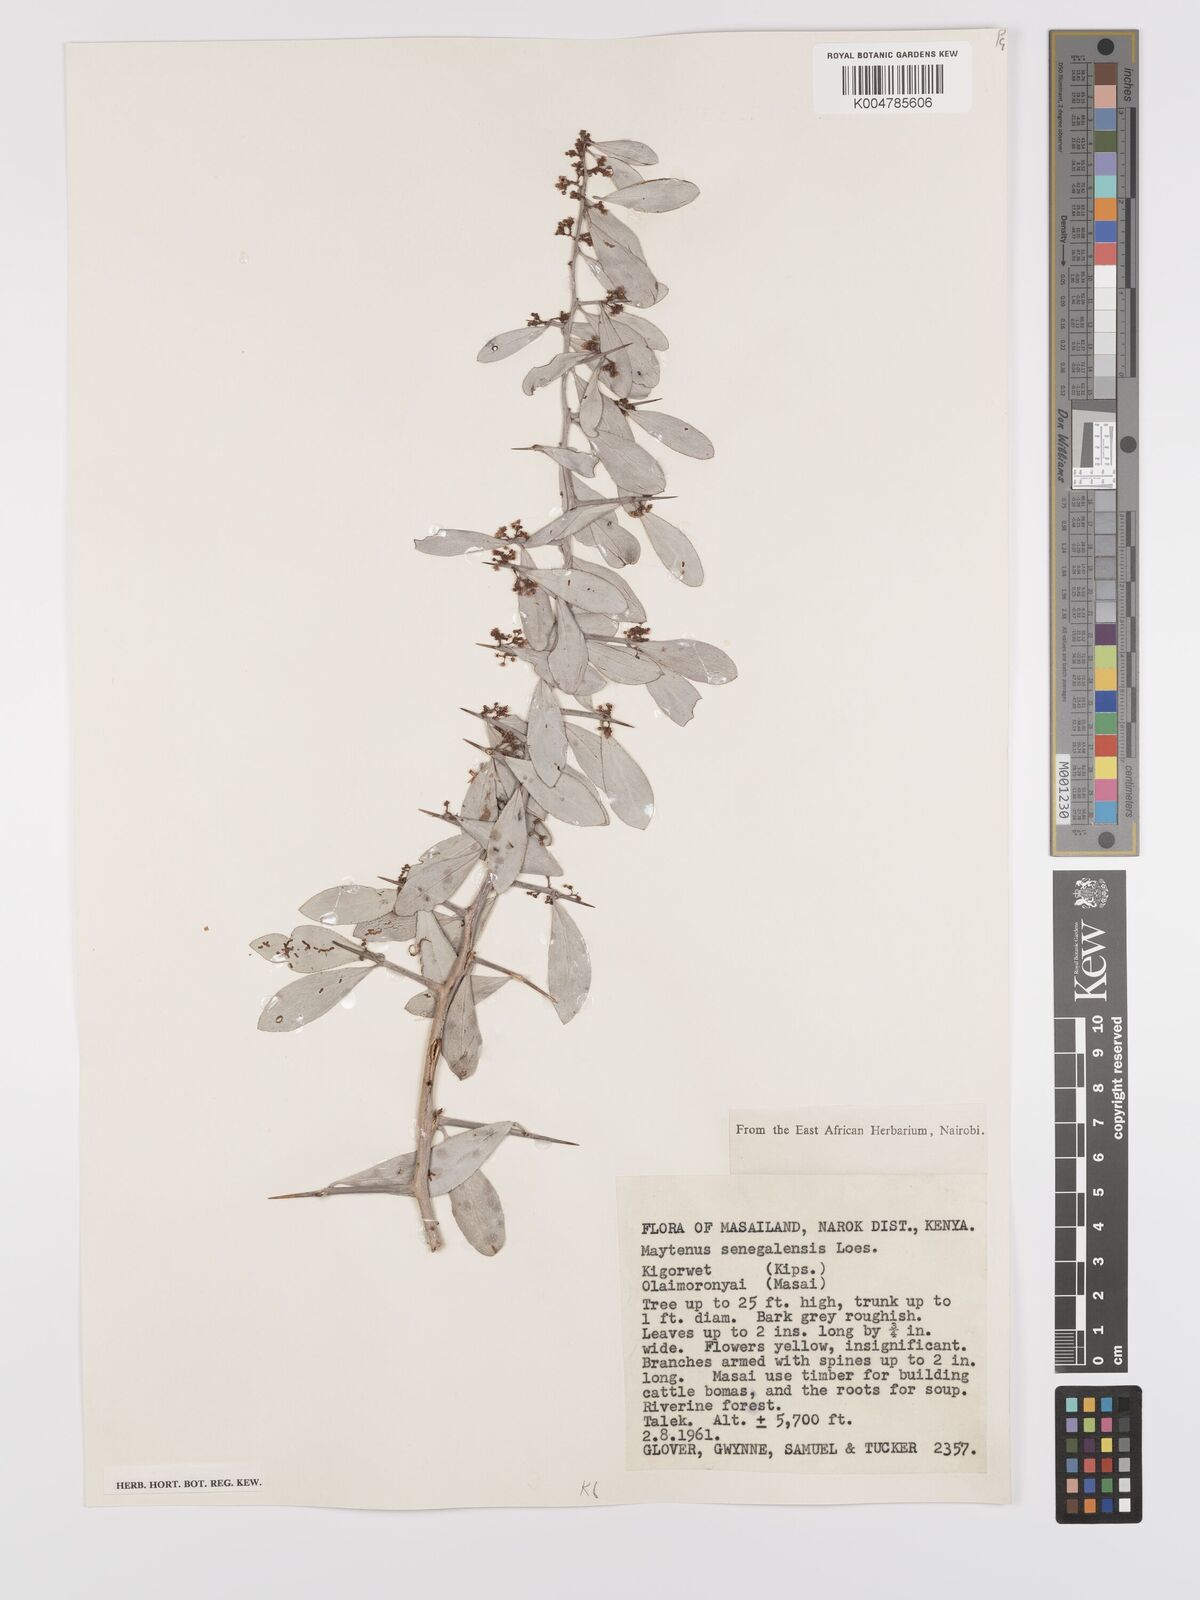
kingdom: Plantae
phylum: Tracheophyta
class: Magnoliopsida
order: Celastrales
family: Celastraceae
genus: Gymnosporia
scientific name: Gymnosporia senegalensis
